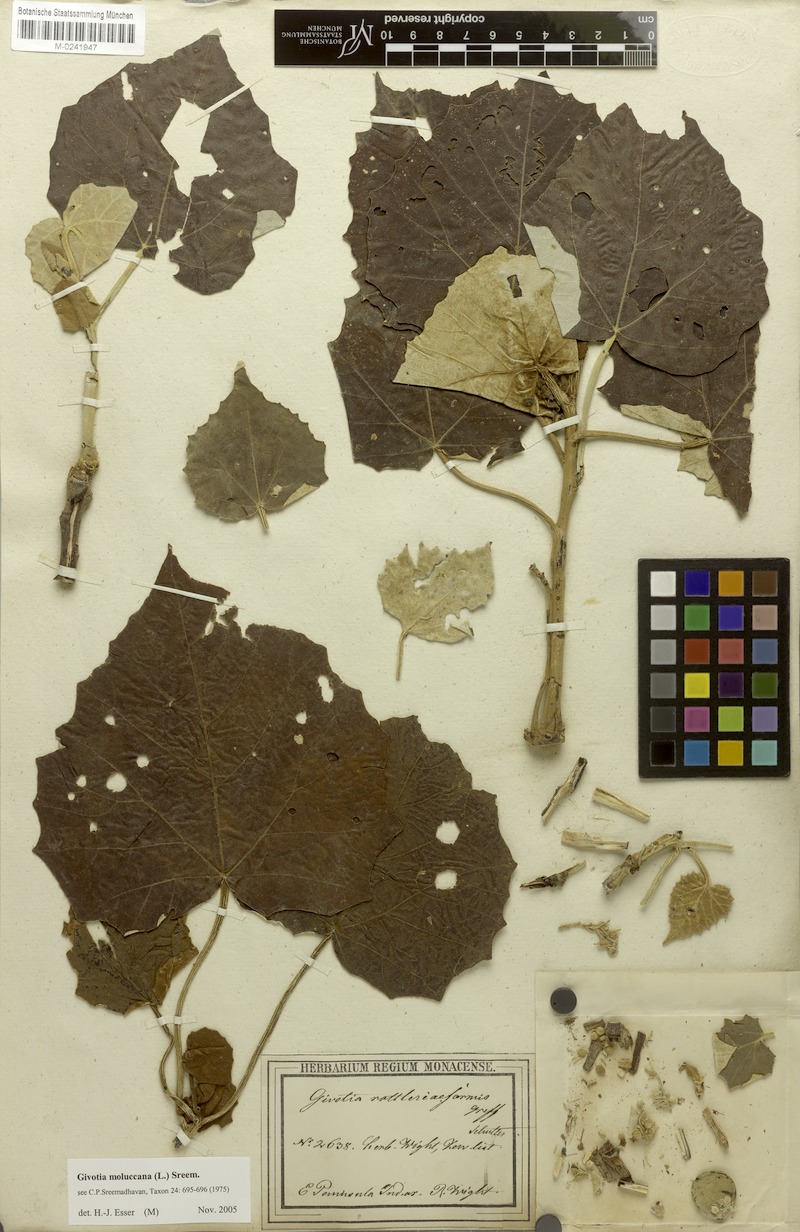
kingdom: Plantae
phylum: Tracheophyta
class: Magnoliopsida
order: Malpighiales
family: Euphorbiaceae
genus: Givotia
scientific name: Givotia moluccana
